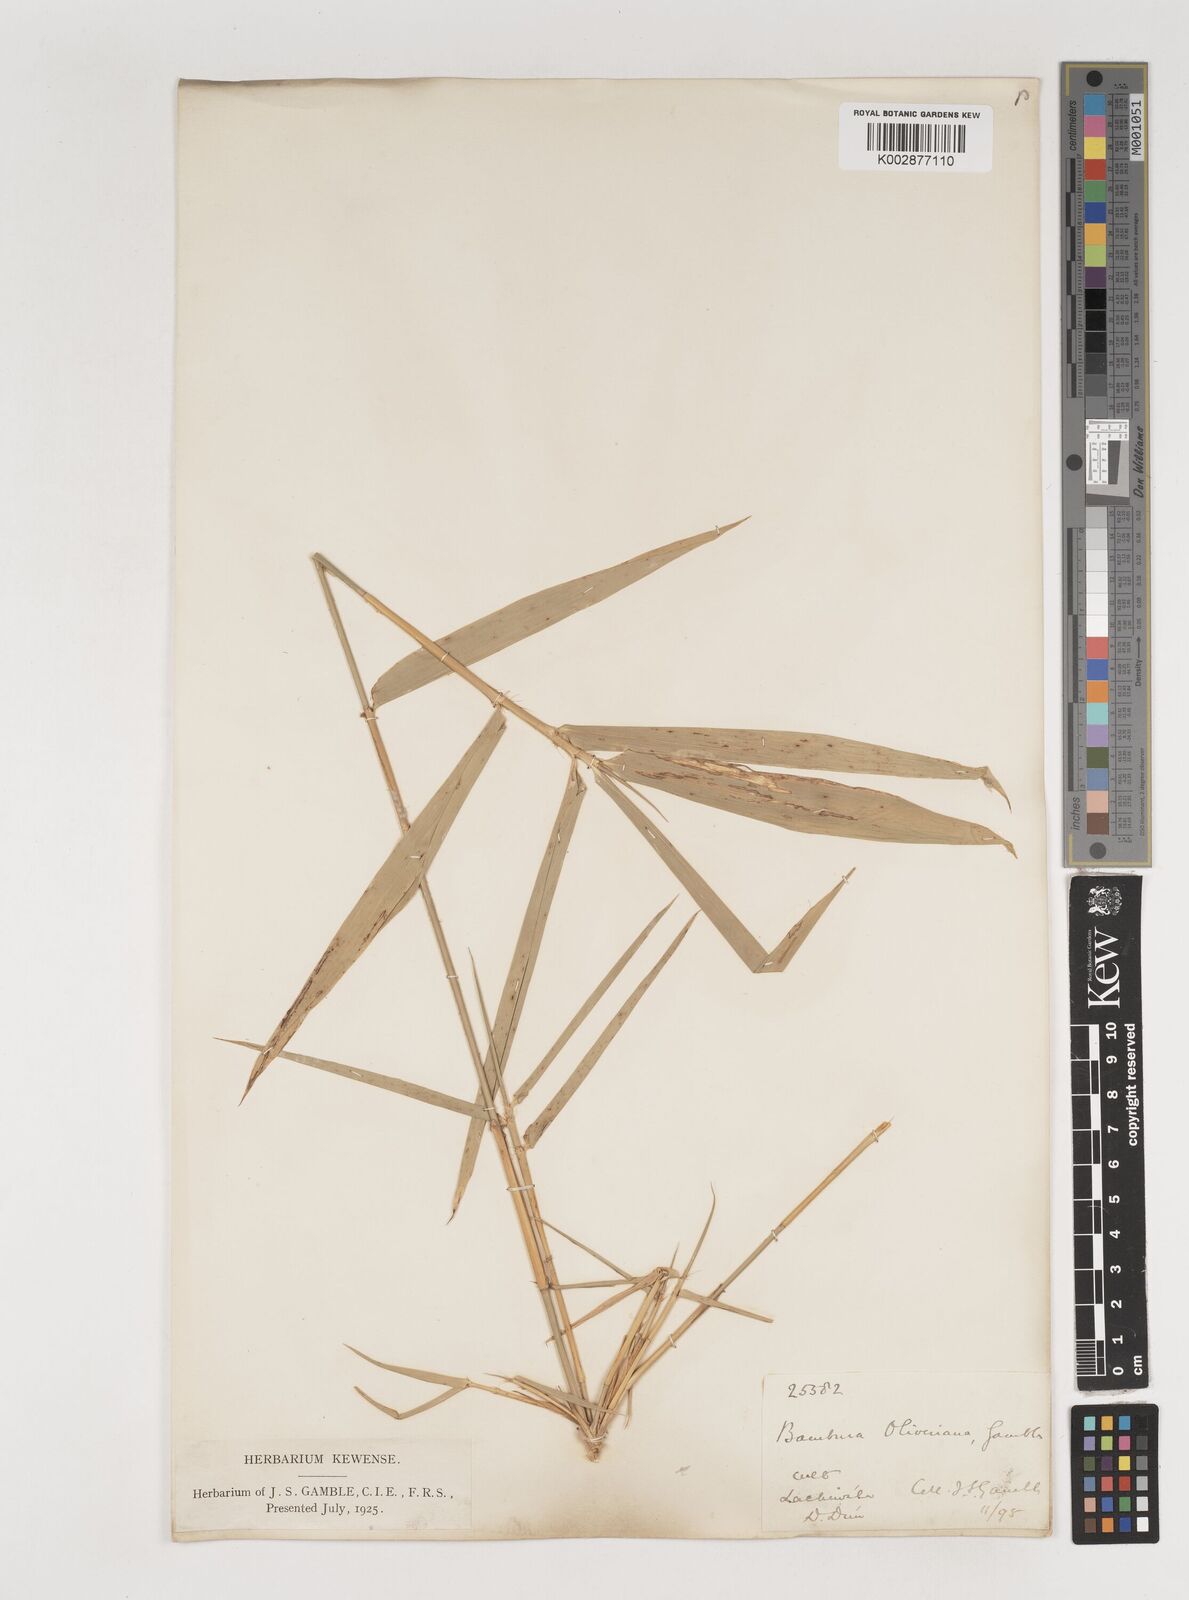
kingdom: Plantae
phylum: Tracheophyta
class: Liliopsida
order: Poales
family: Poaceae
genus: Bambusa
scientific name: Bambusa
